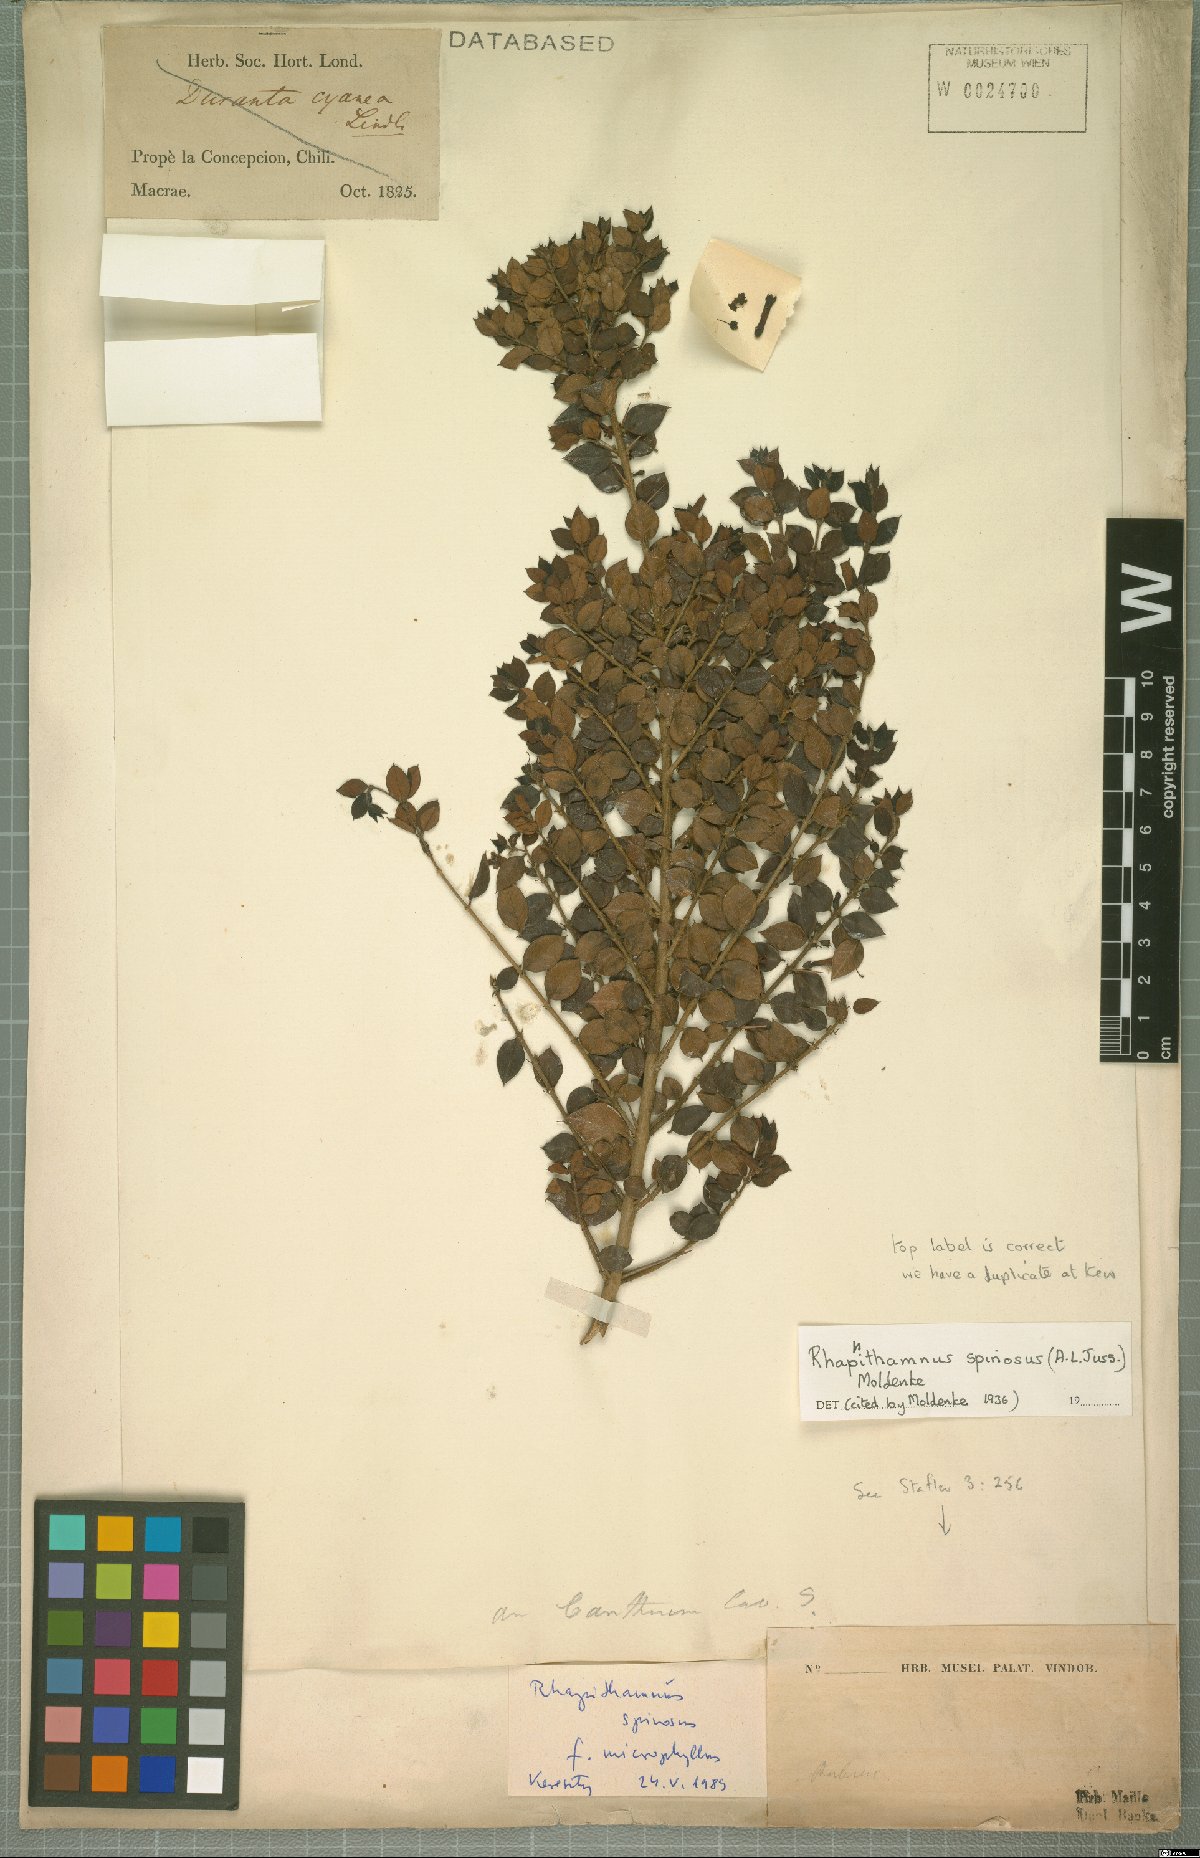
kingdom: Plantae
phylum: Tracheophyta
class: Magnoliopsida
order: Lamiales
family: Verbenaceae
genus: Rhaphithamnus
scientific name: Rhaphithamnus spinosus
